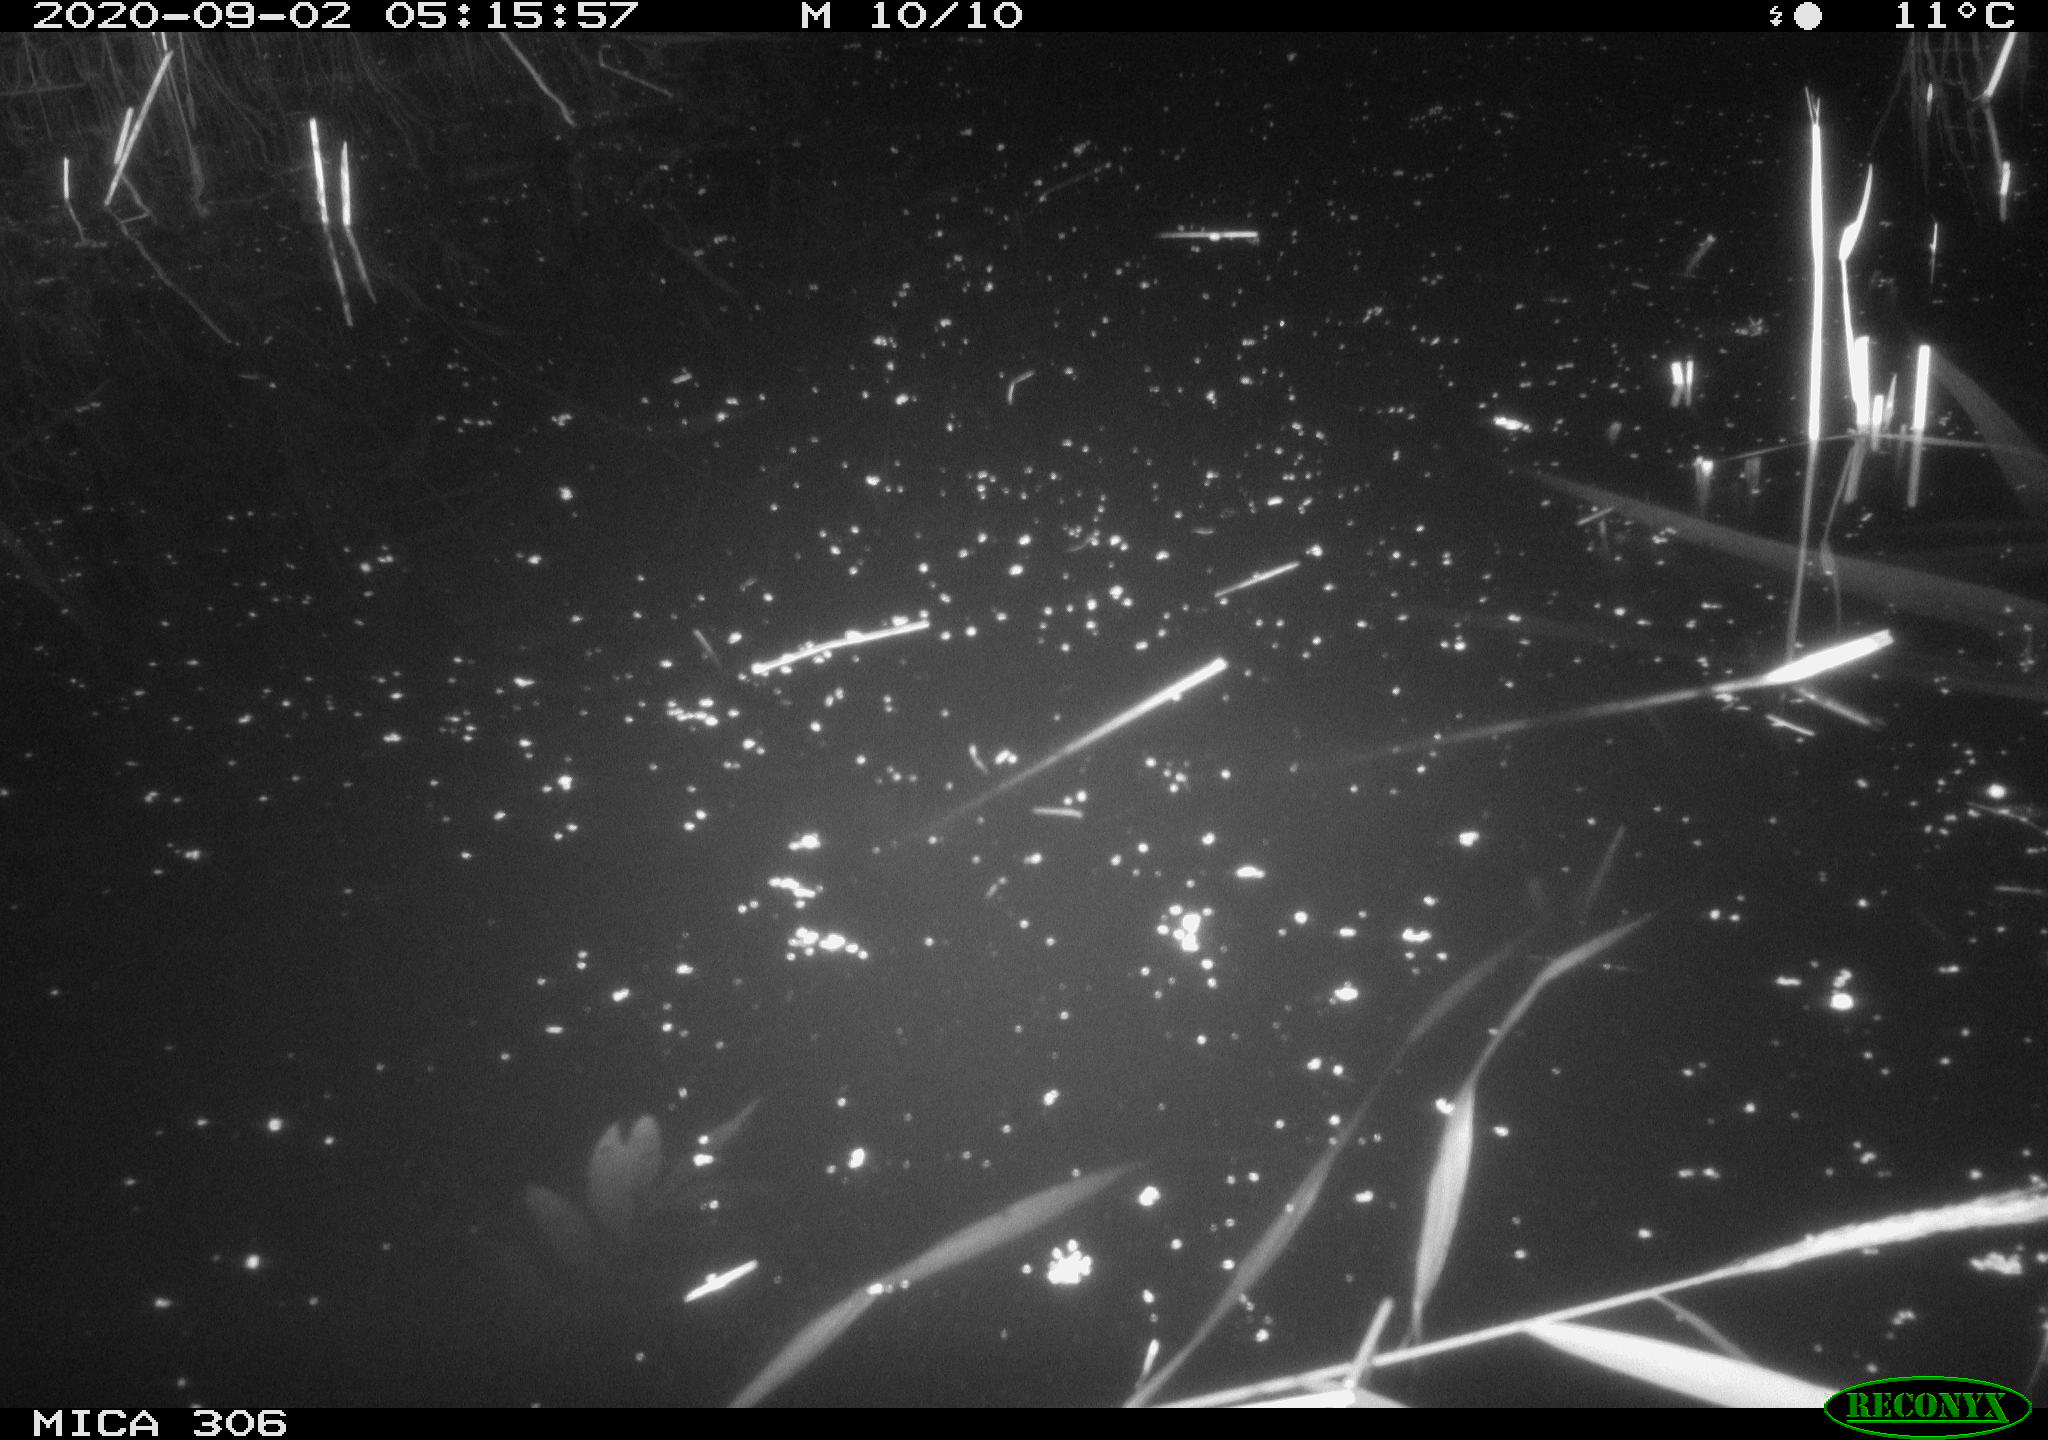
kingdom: Animalia
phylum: Chordata
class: Mammalia
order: Rodentia
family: Muridae
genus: Rattus
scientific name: Rattus norvegicus
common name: Brown rat
